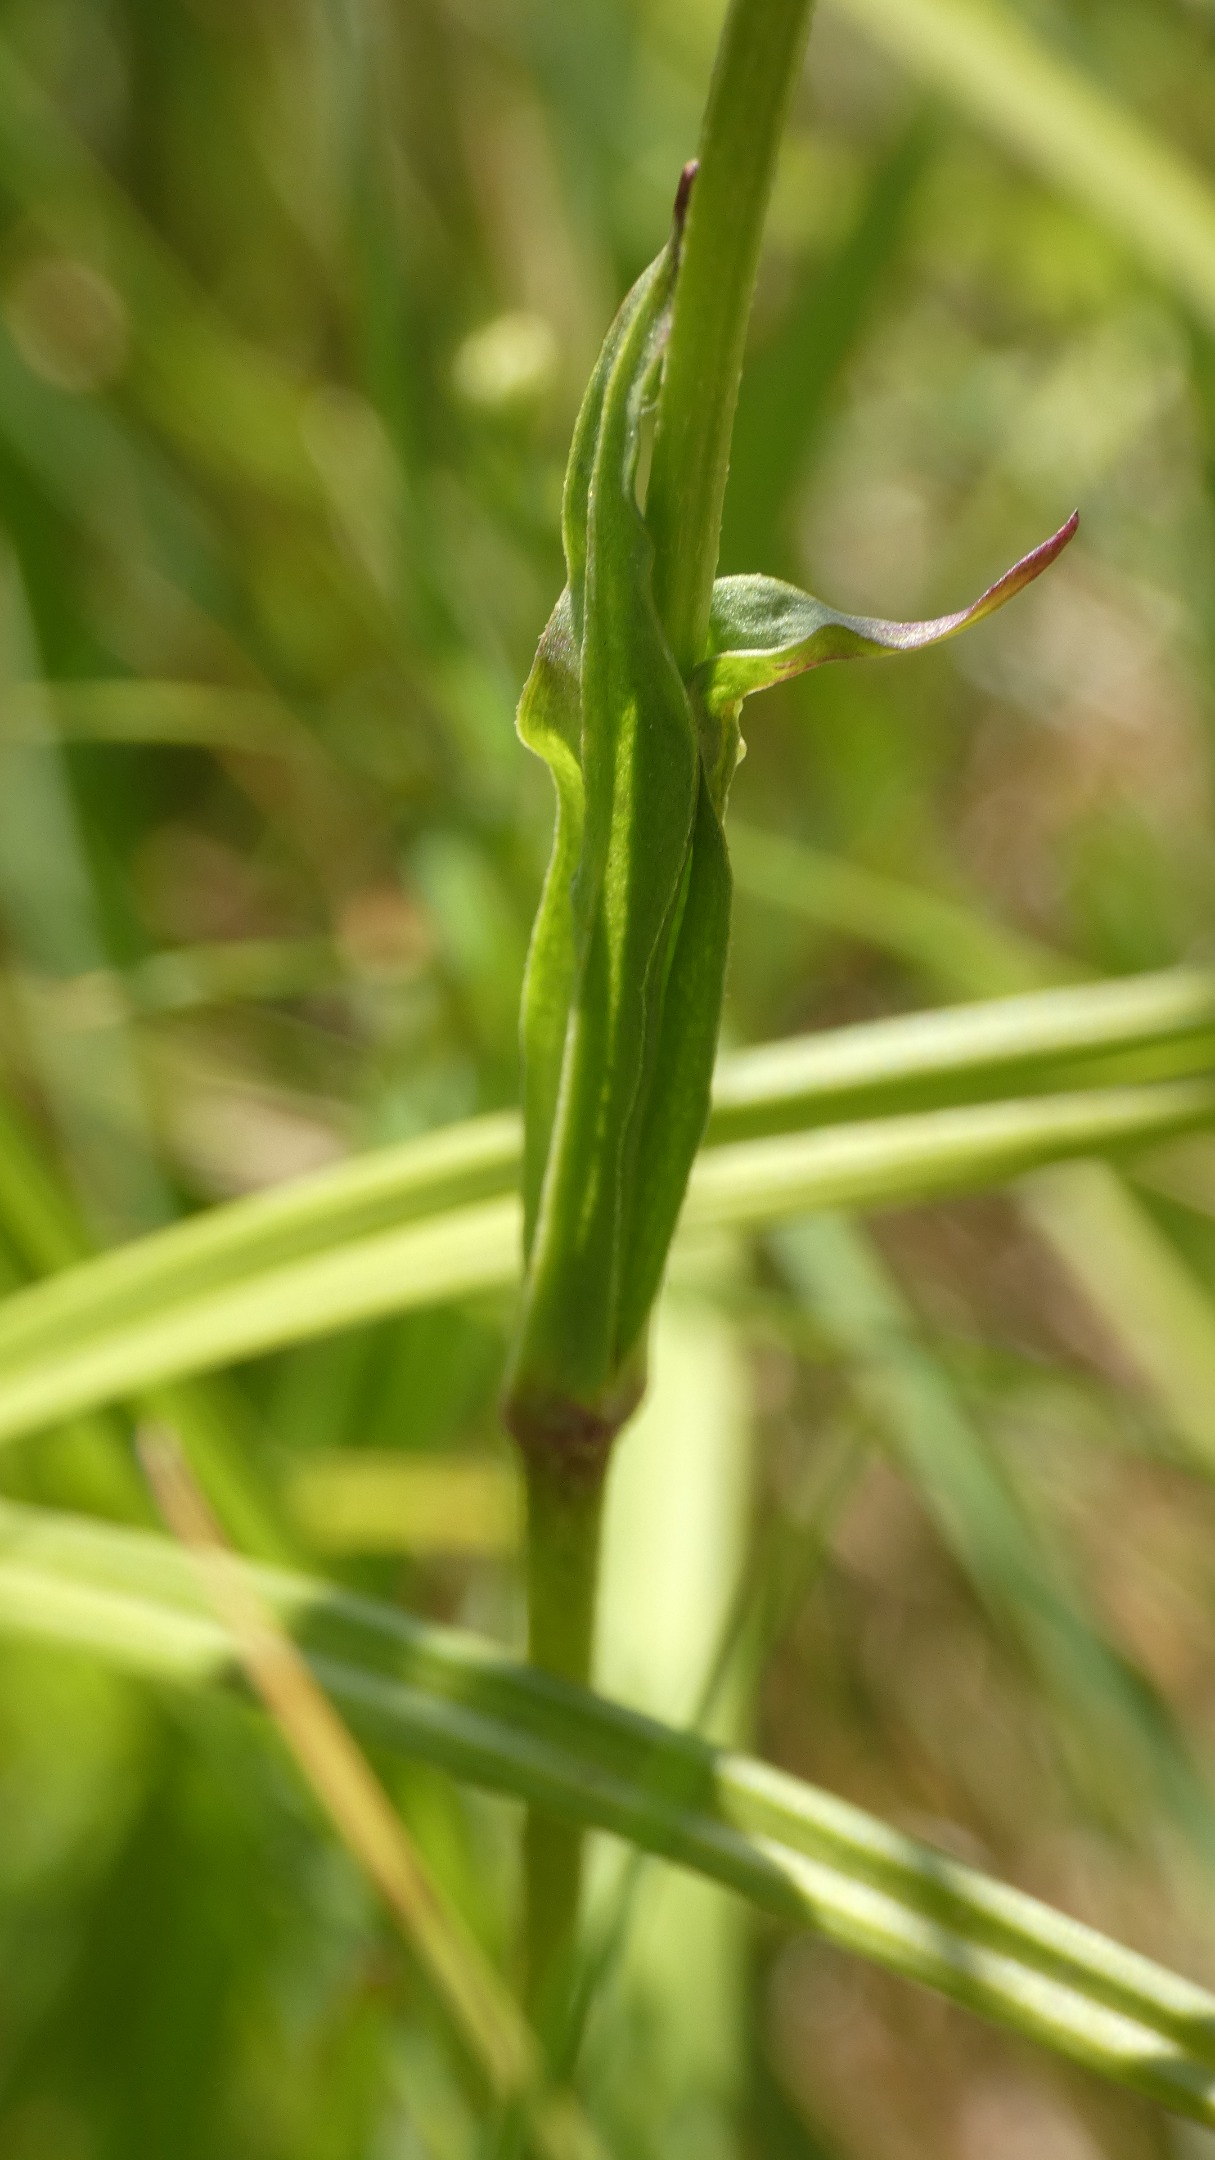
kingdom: Plantae
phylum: Tracheophyta
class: Magnoliopsida
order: Caryophyllales
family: Caryophyllaceae
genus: Silene
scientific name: Silene flos-cuculi
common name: Trævlekrone
